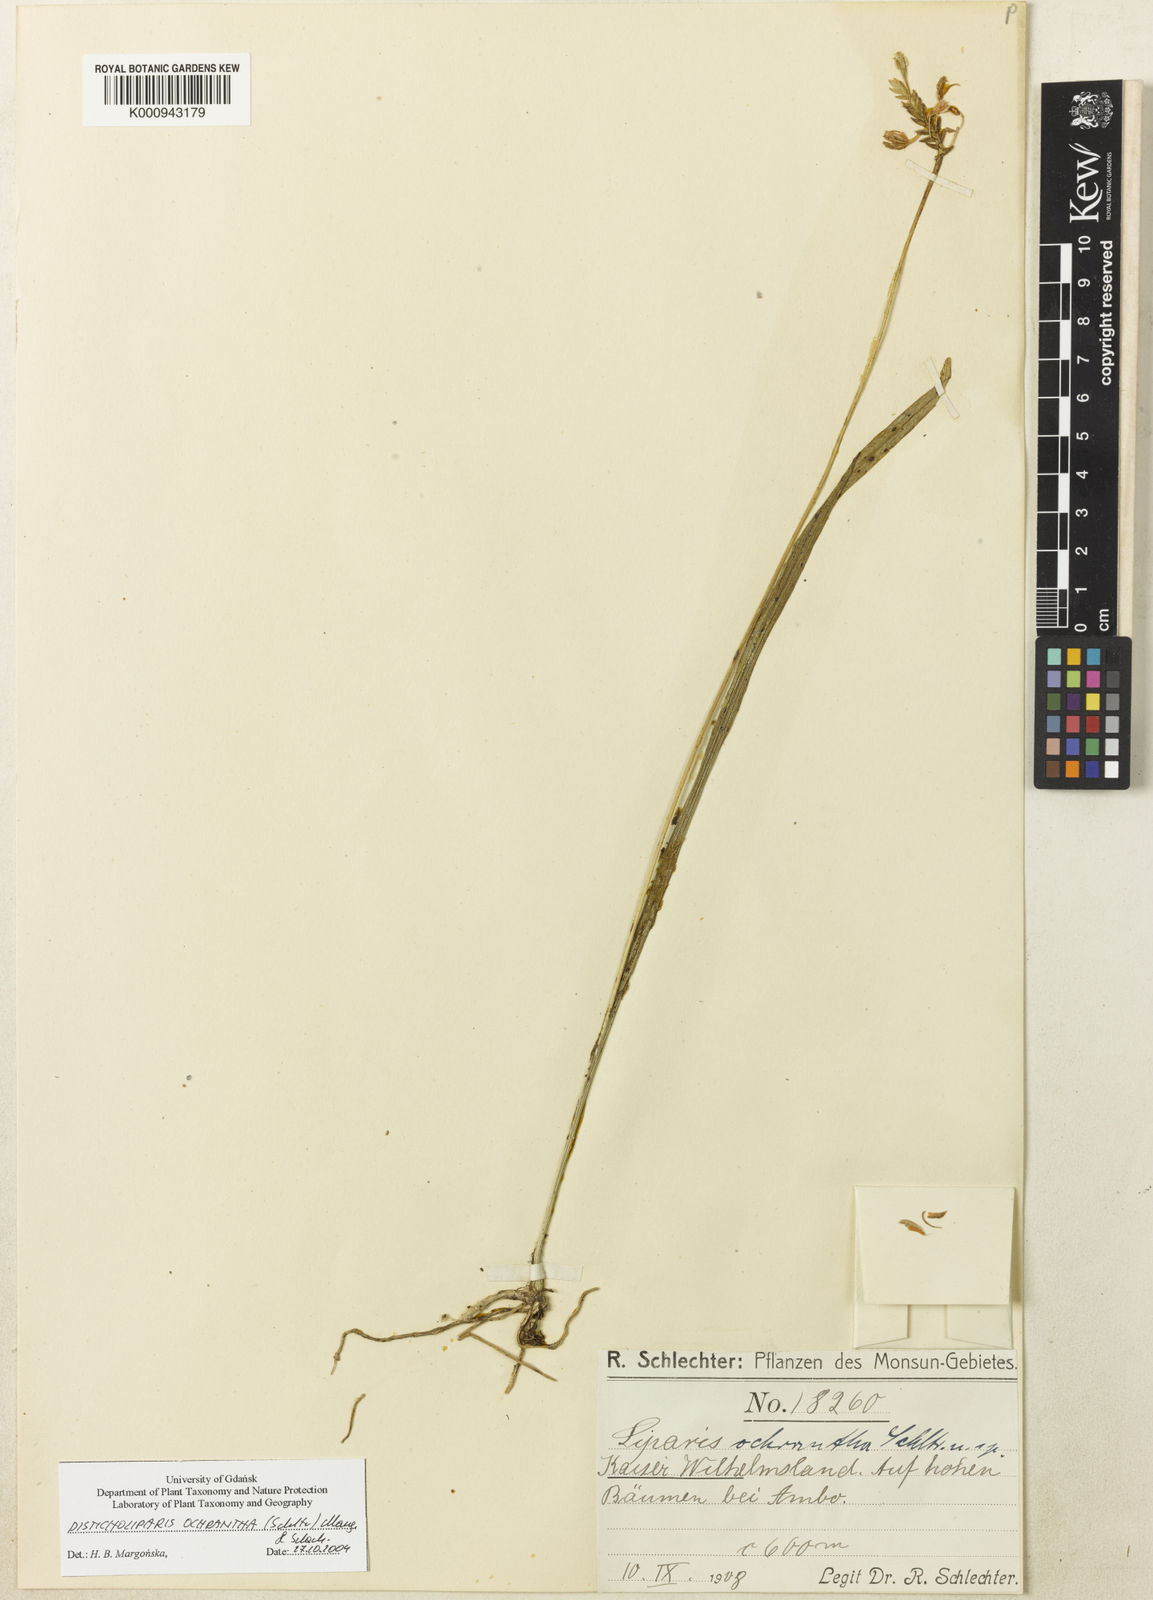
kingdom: Plantae
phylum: Tracheophyta
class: Liliopsida
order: Asparagales
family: Orchidaceae
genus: Liparis
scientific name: Liparis ochrantha
